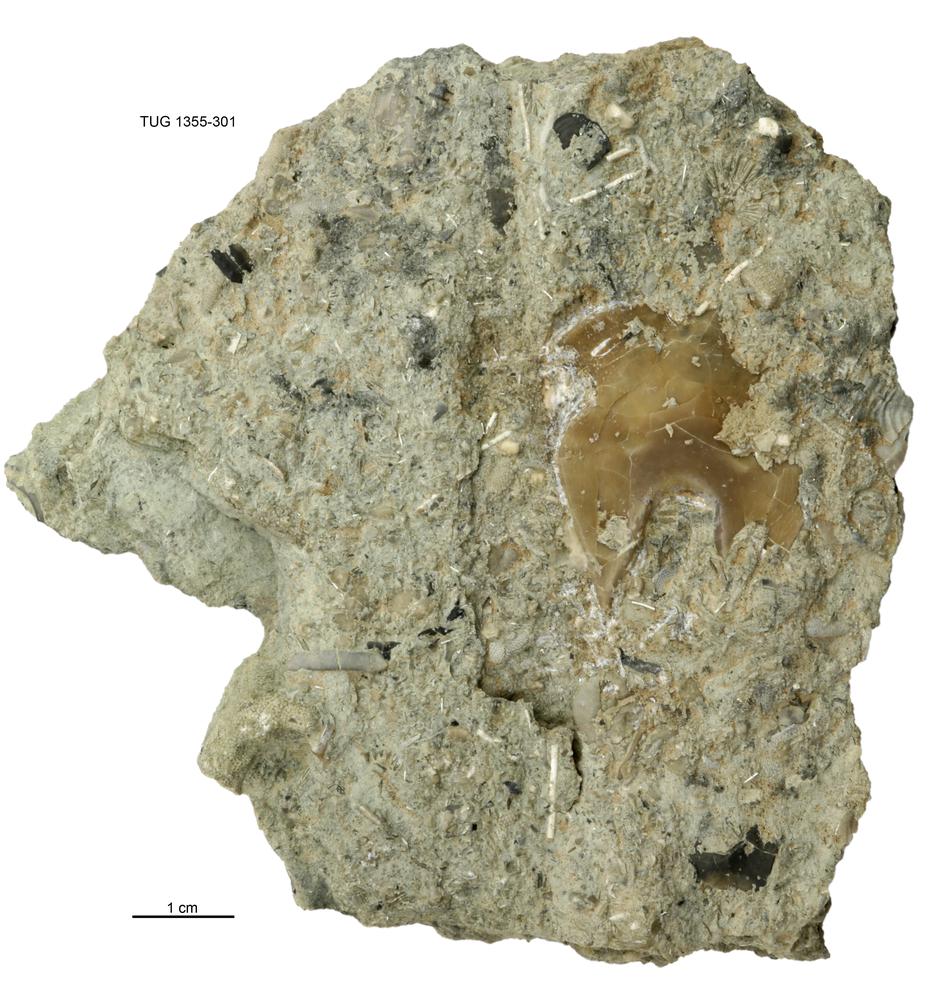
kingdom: Animalia
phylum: Arthropoda
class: Trilobita
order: Asaphida
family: Asaphidae
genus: Asaphus
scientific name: Asaphus nieszkowskii
